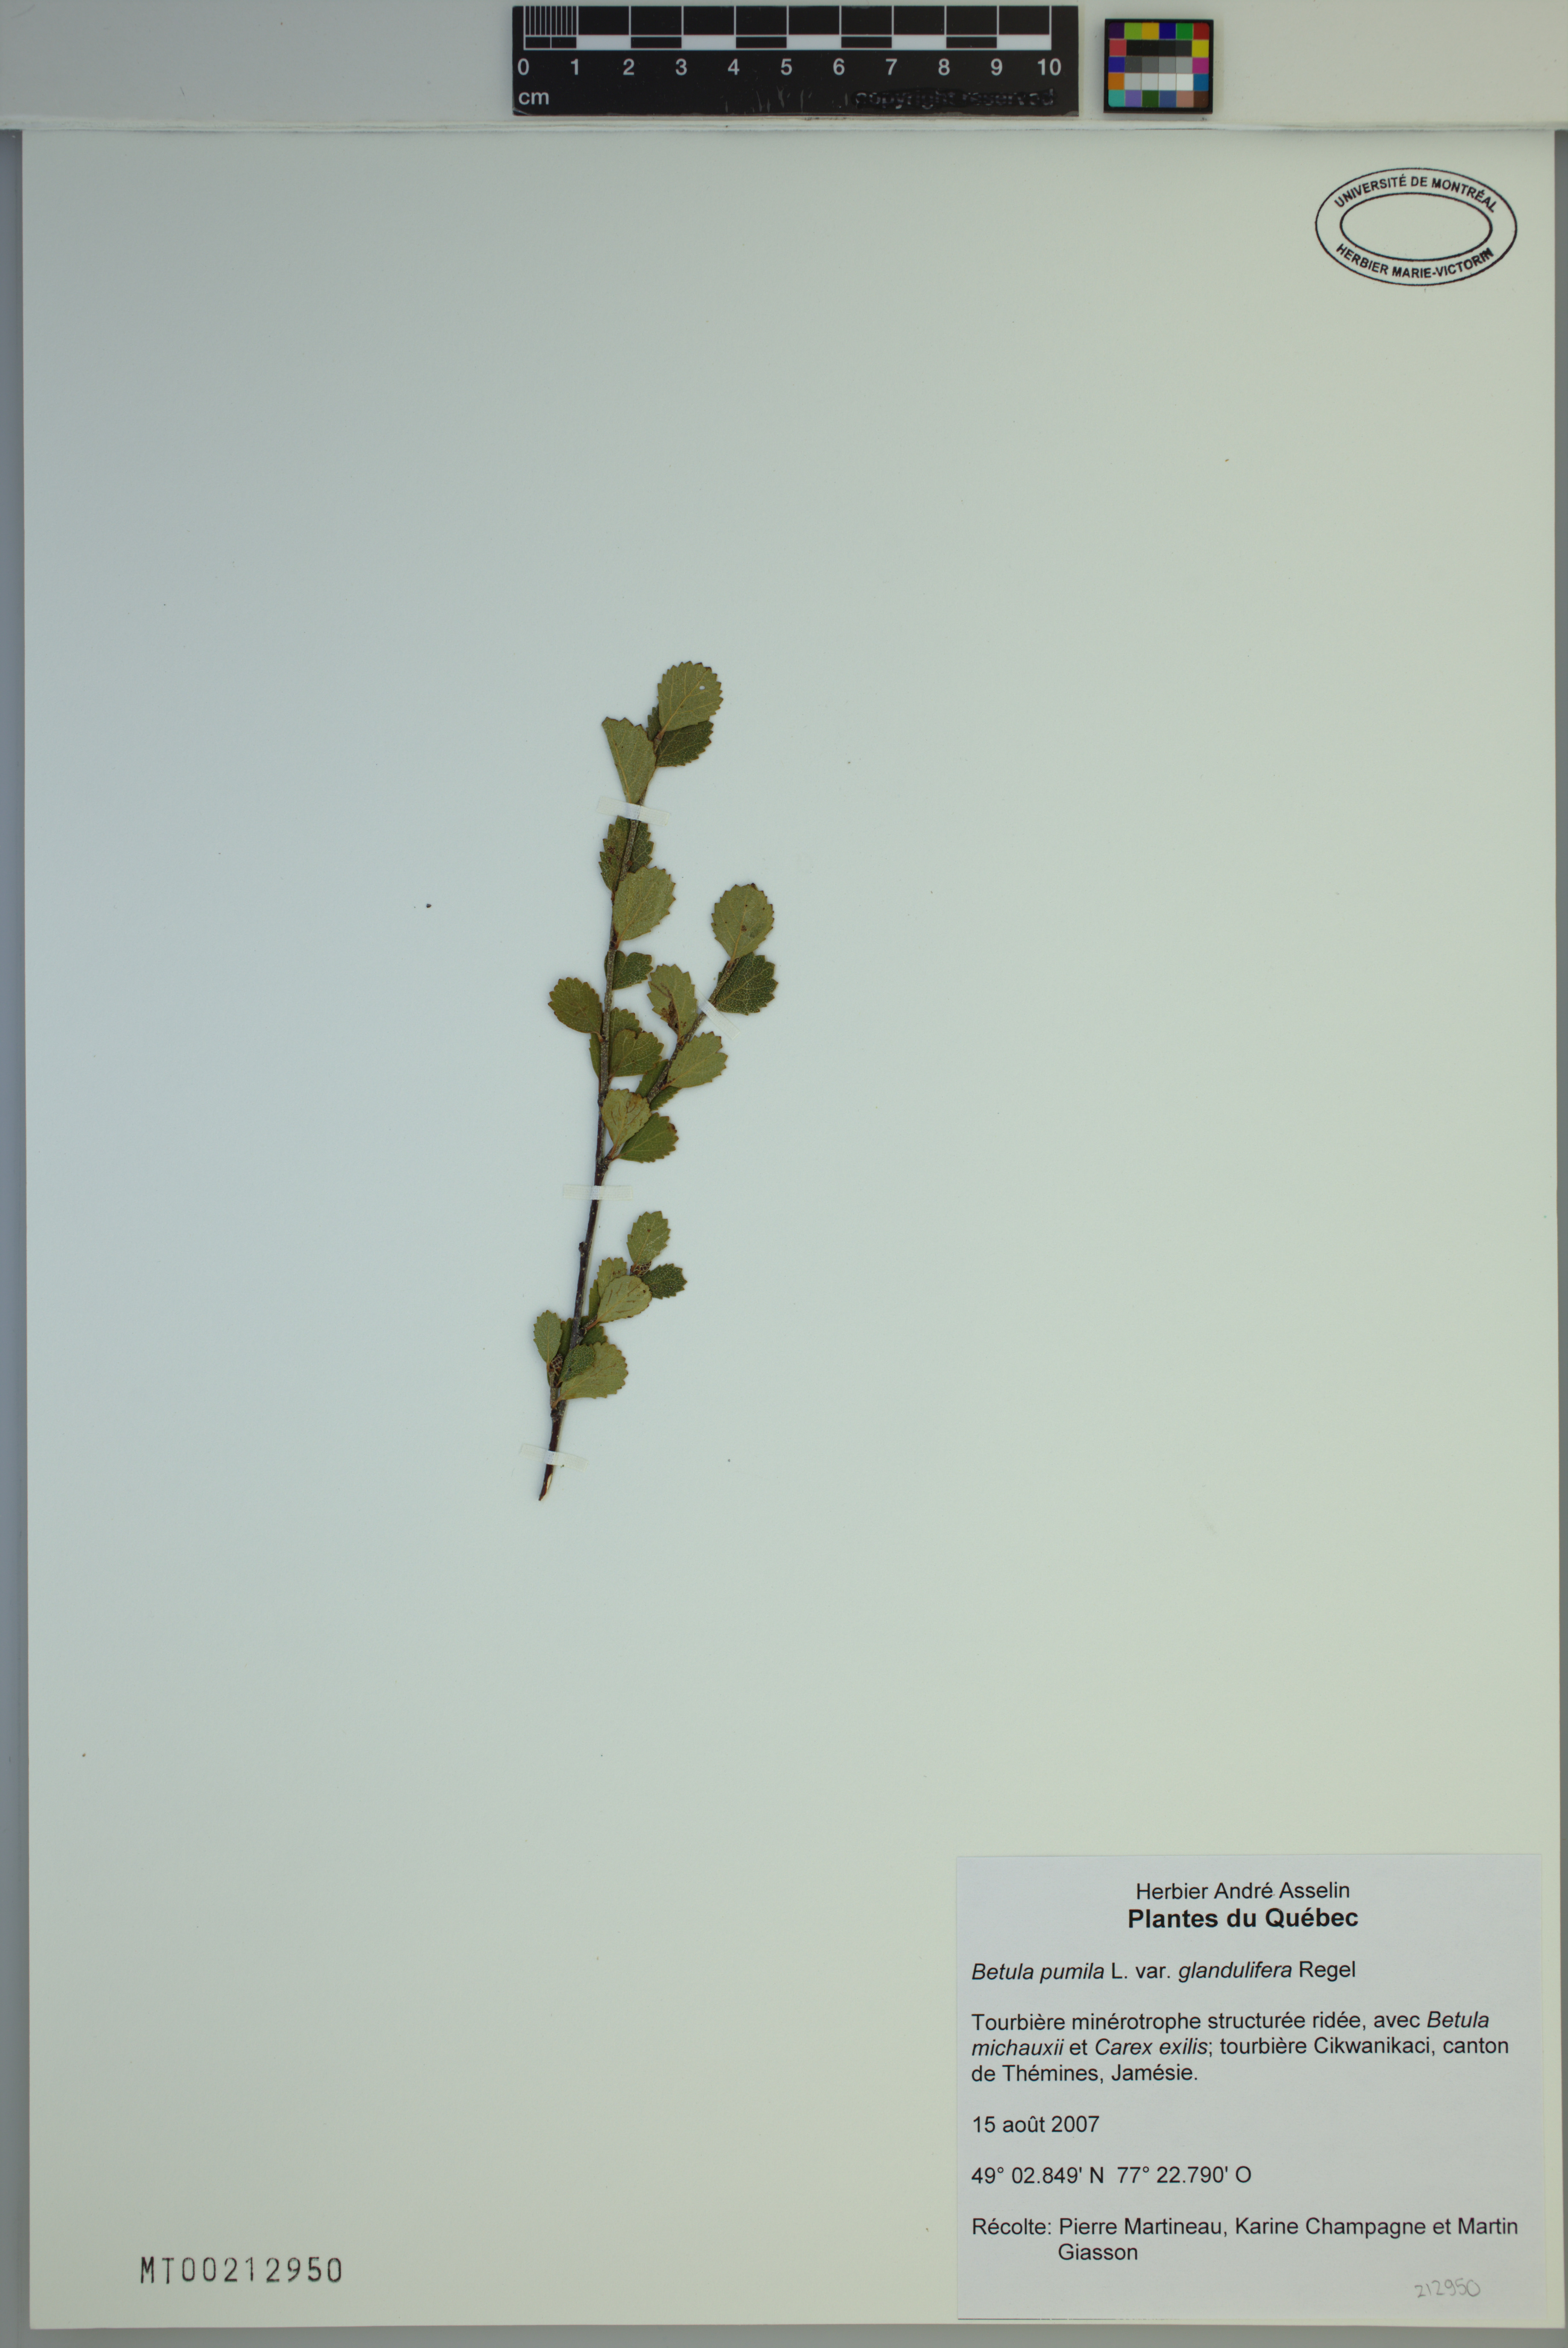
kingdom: Plantae
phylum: Tracheophyta
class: Magnoliopsida
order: Fagales
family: Betulaceae
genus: Betula
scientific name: Betula pumila
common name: Bog birch
